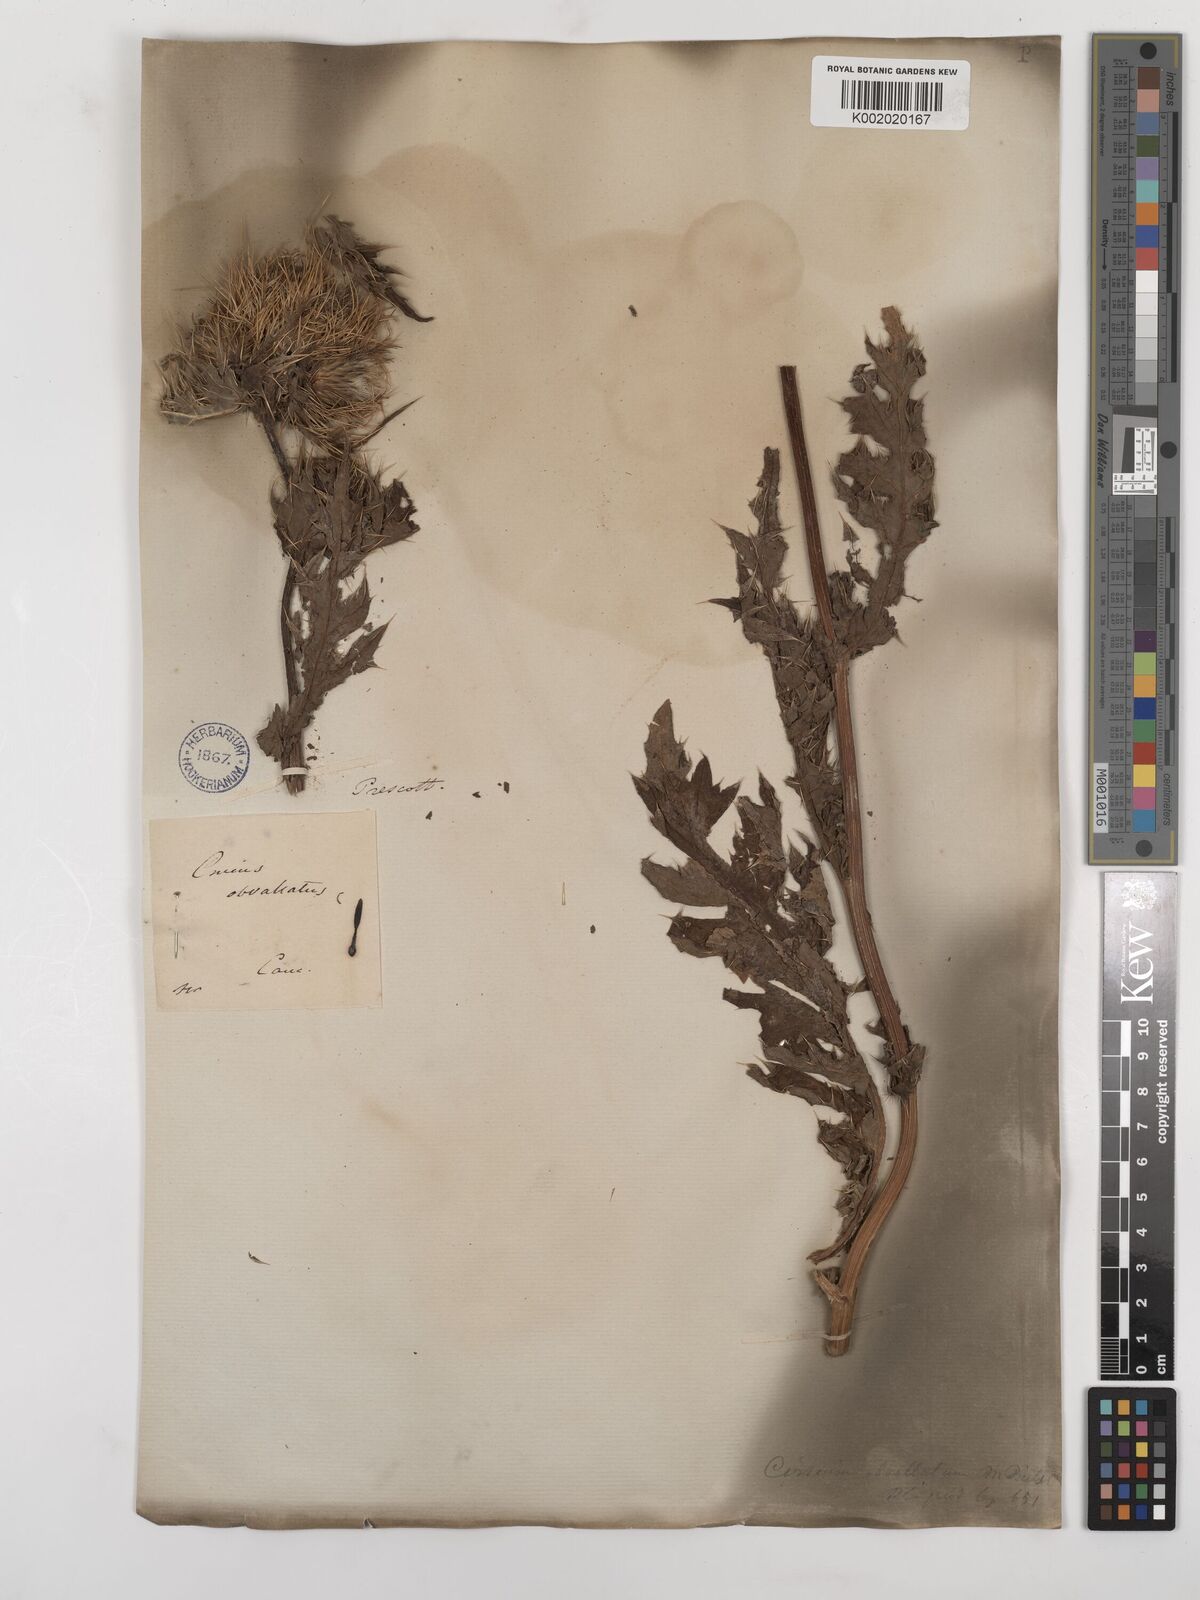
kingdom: Plantae
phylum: Tracheophyta
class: Magnoliopsida
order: Asterales
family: Asteraceae
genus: Cirsium
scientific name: Cirsium obvallatum
